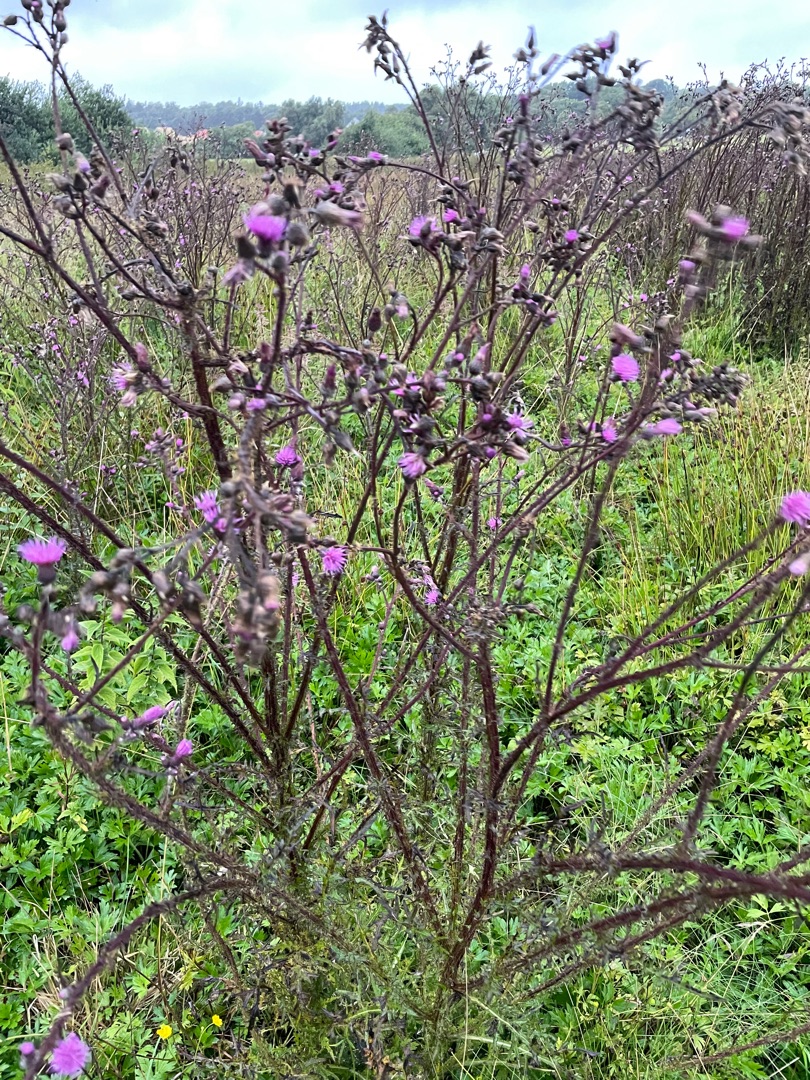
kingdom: Plantae
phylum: Tracheophyta
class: Magnoliopsida
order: Asterales
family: Asteraceae
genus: Cirsium
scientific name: Cirsium palustre
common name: Kær-tidsel
